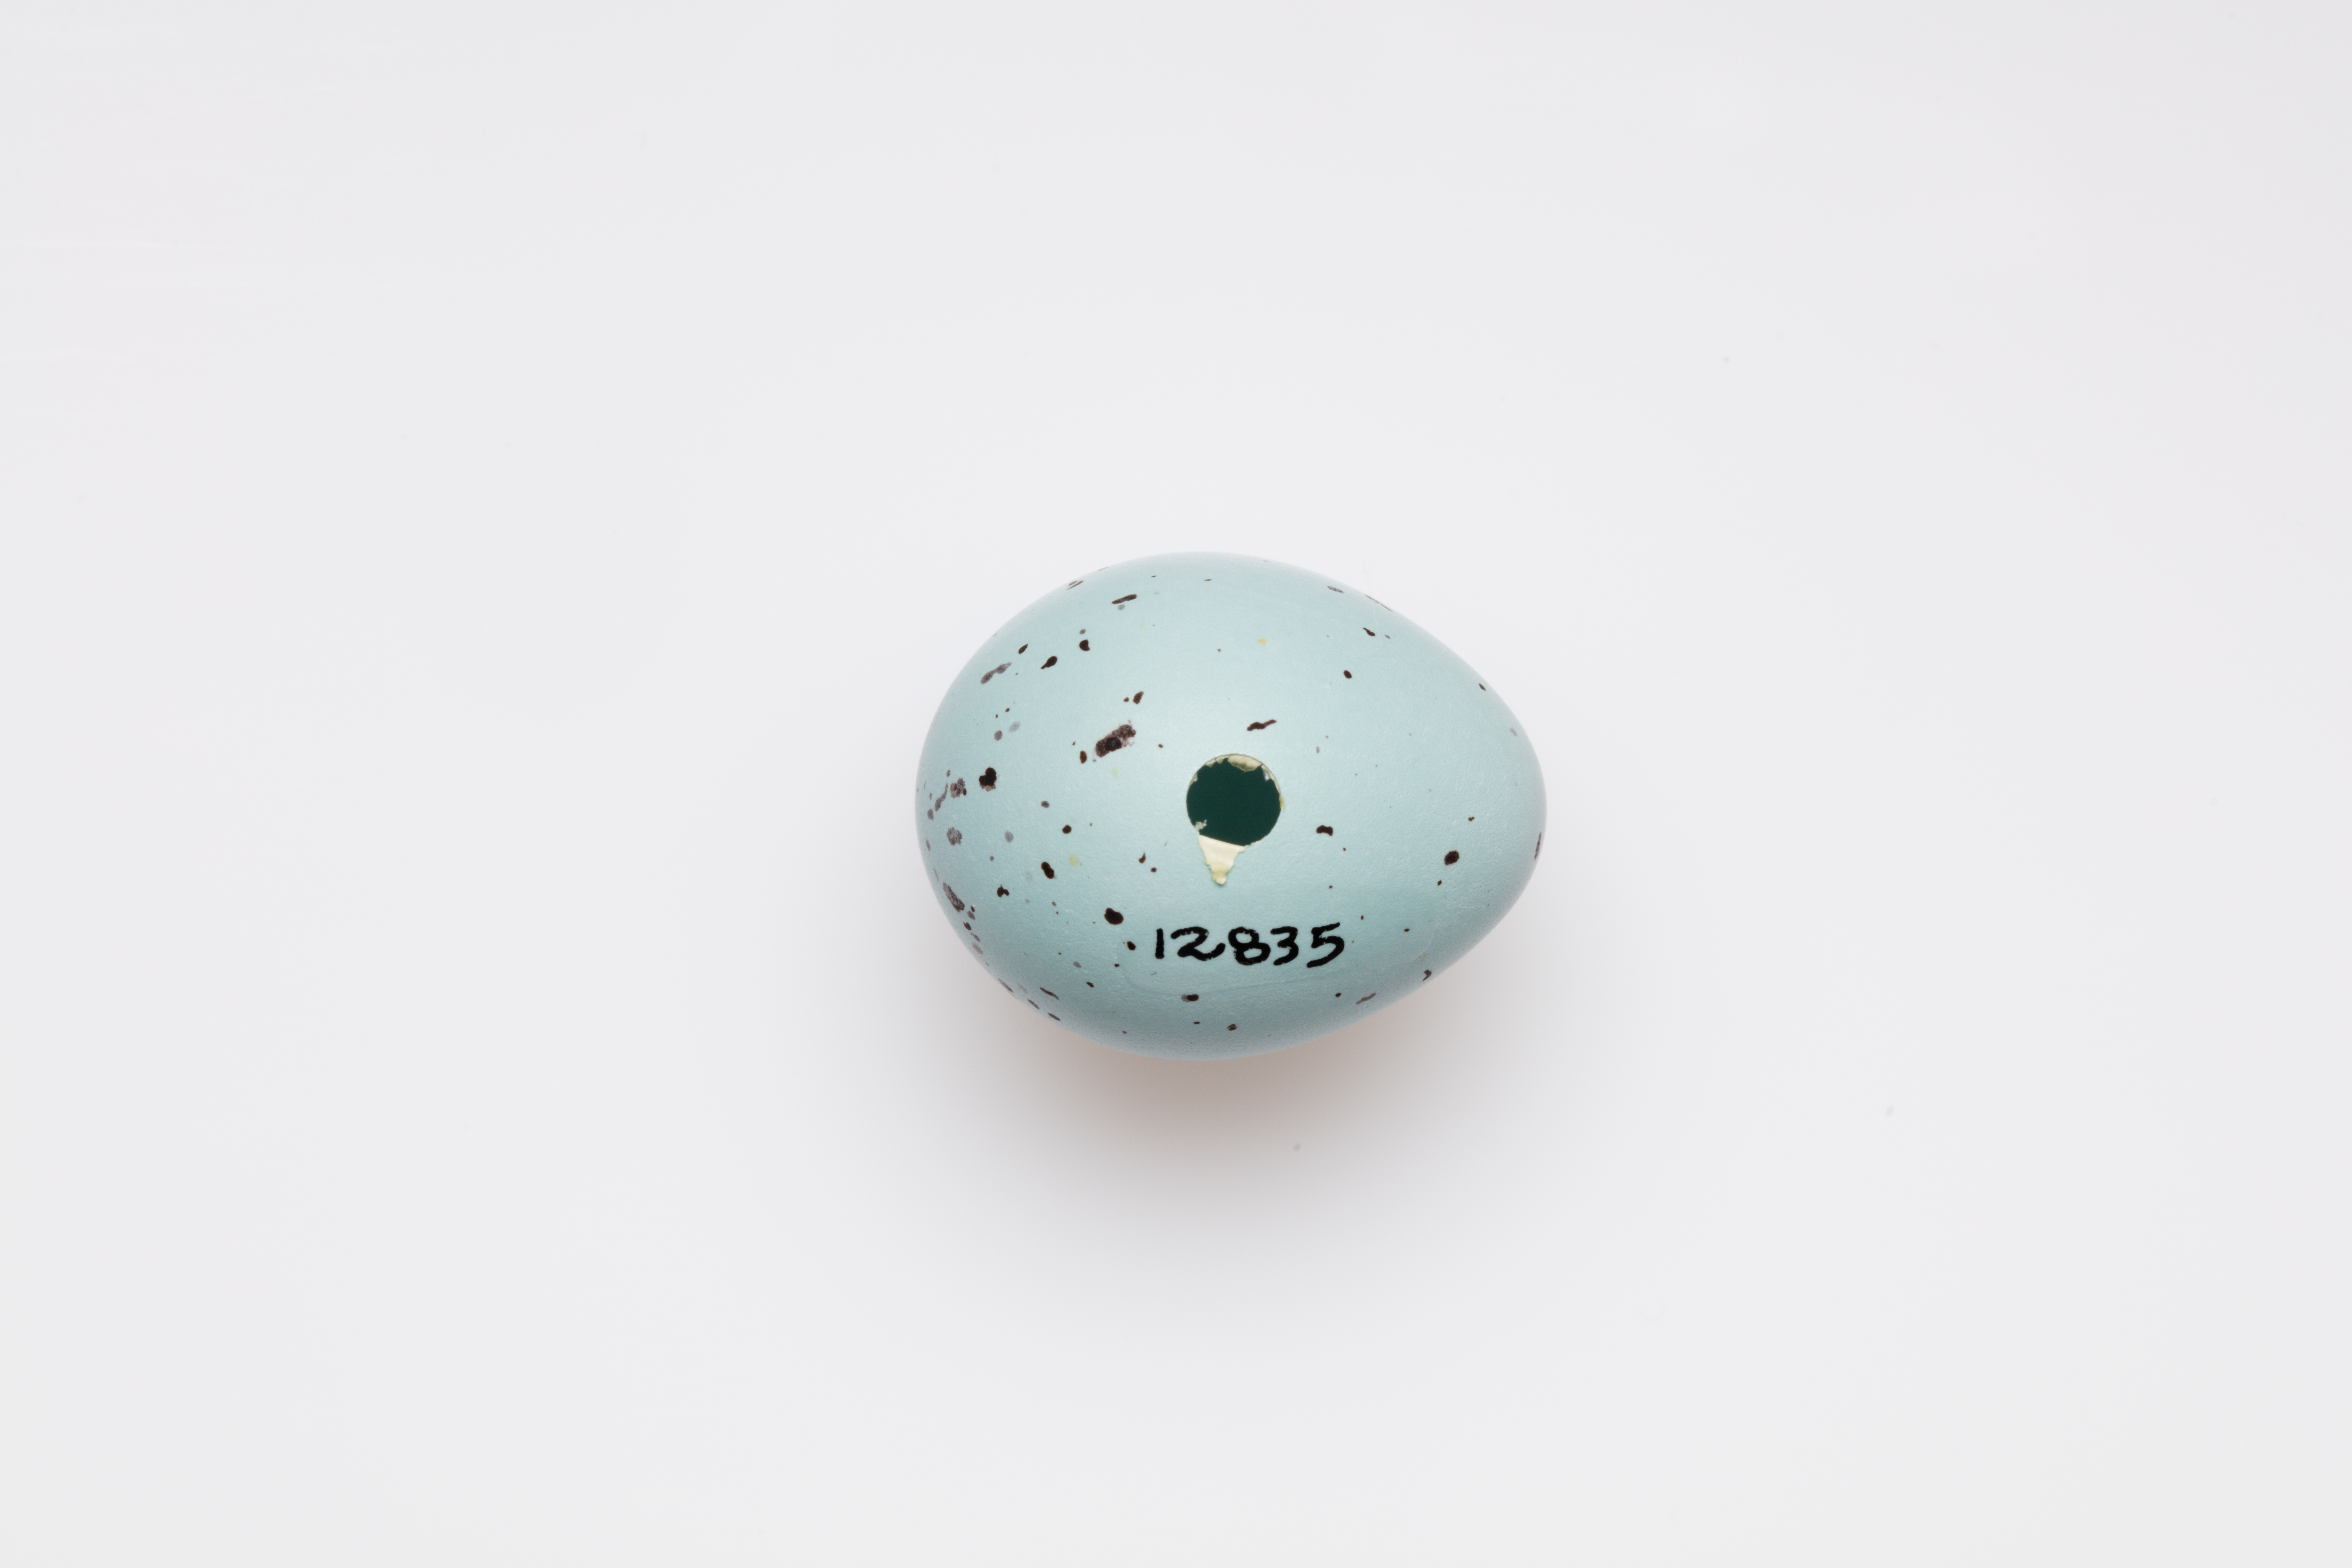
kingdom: Animalia
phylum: Chordata
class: Aves
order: Passeriformes
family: Turdidae
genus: Turdus
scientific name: Turdus philomelos
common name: Song thrush
